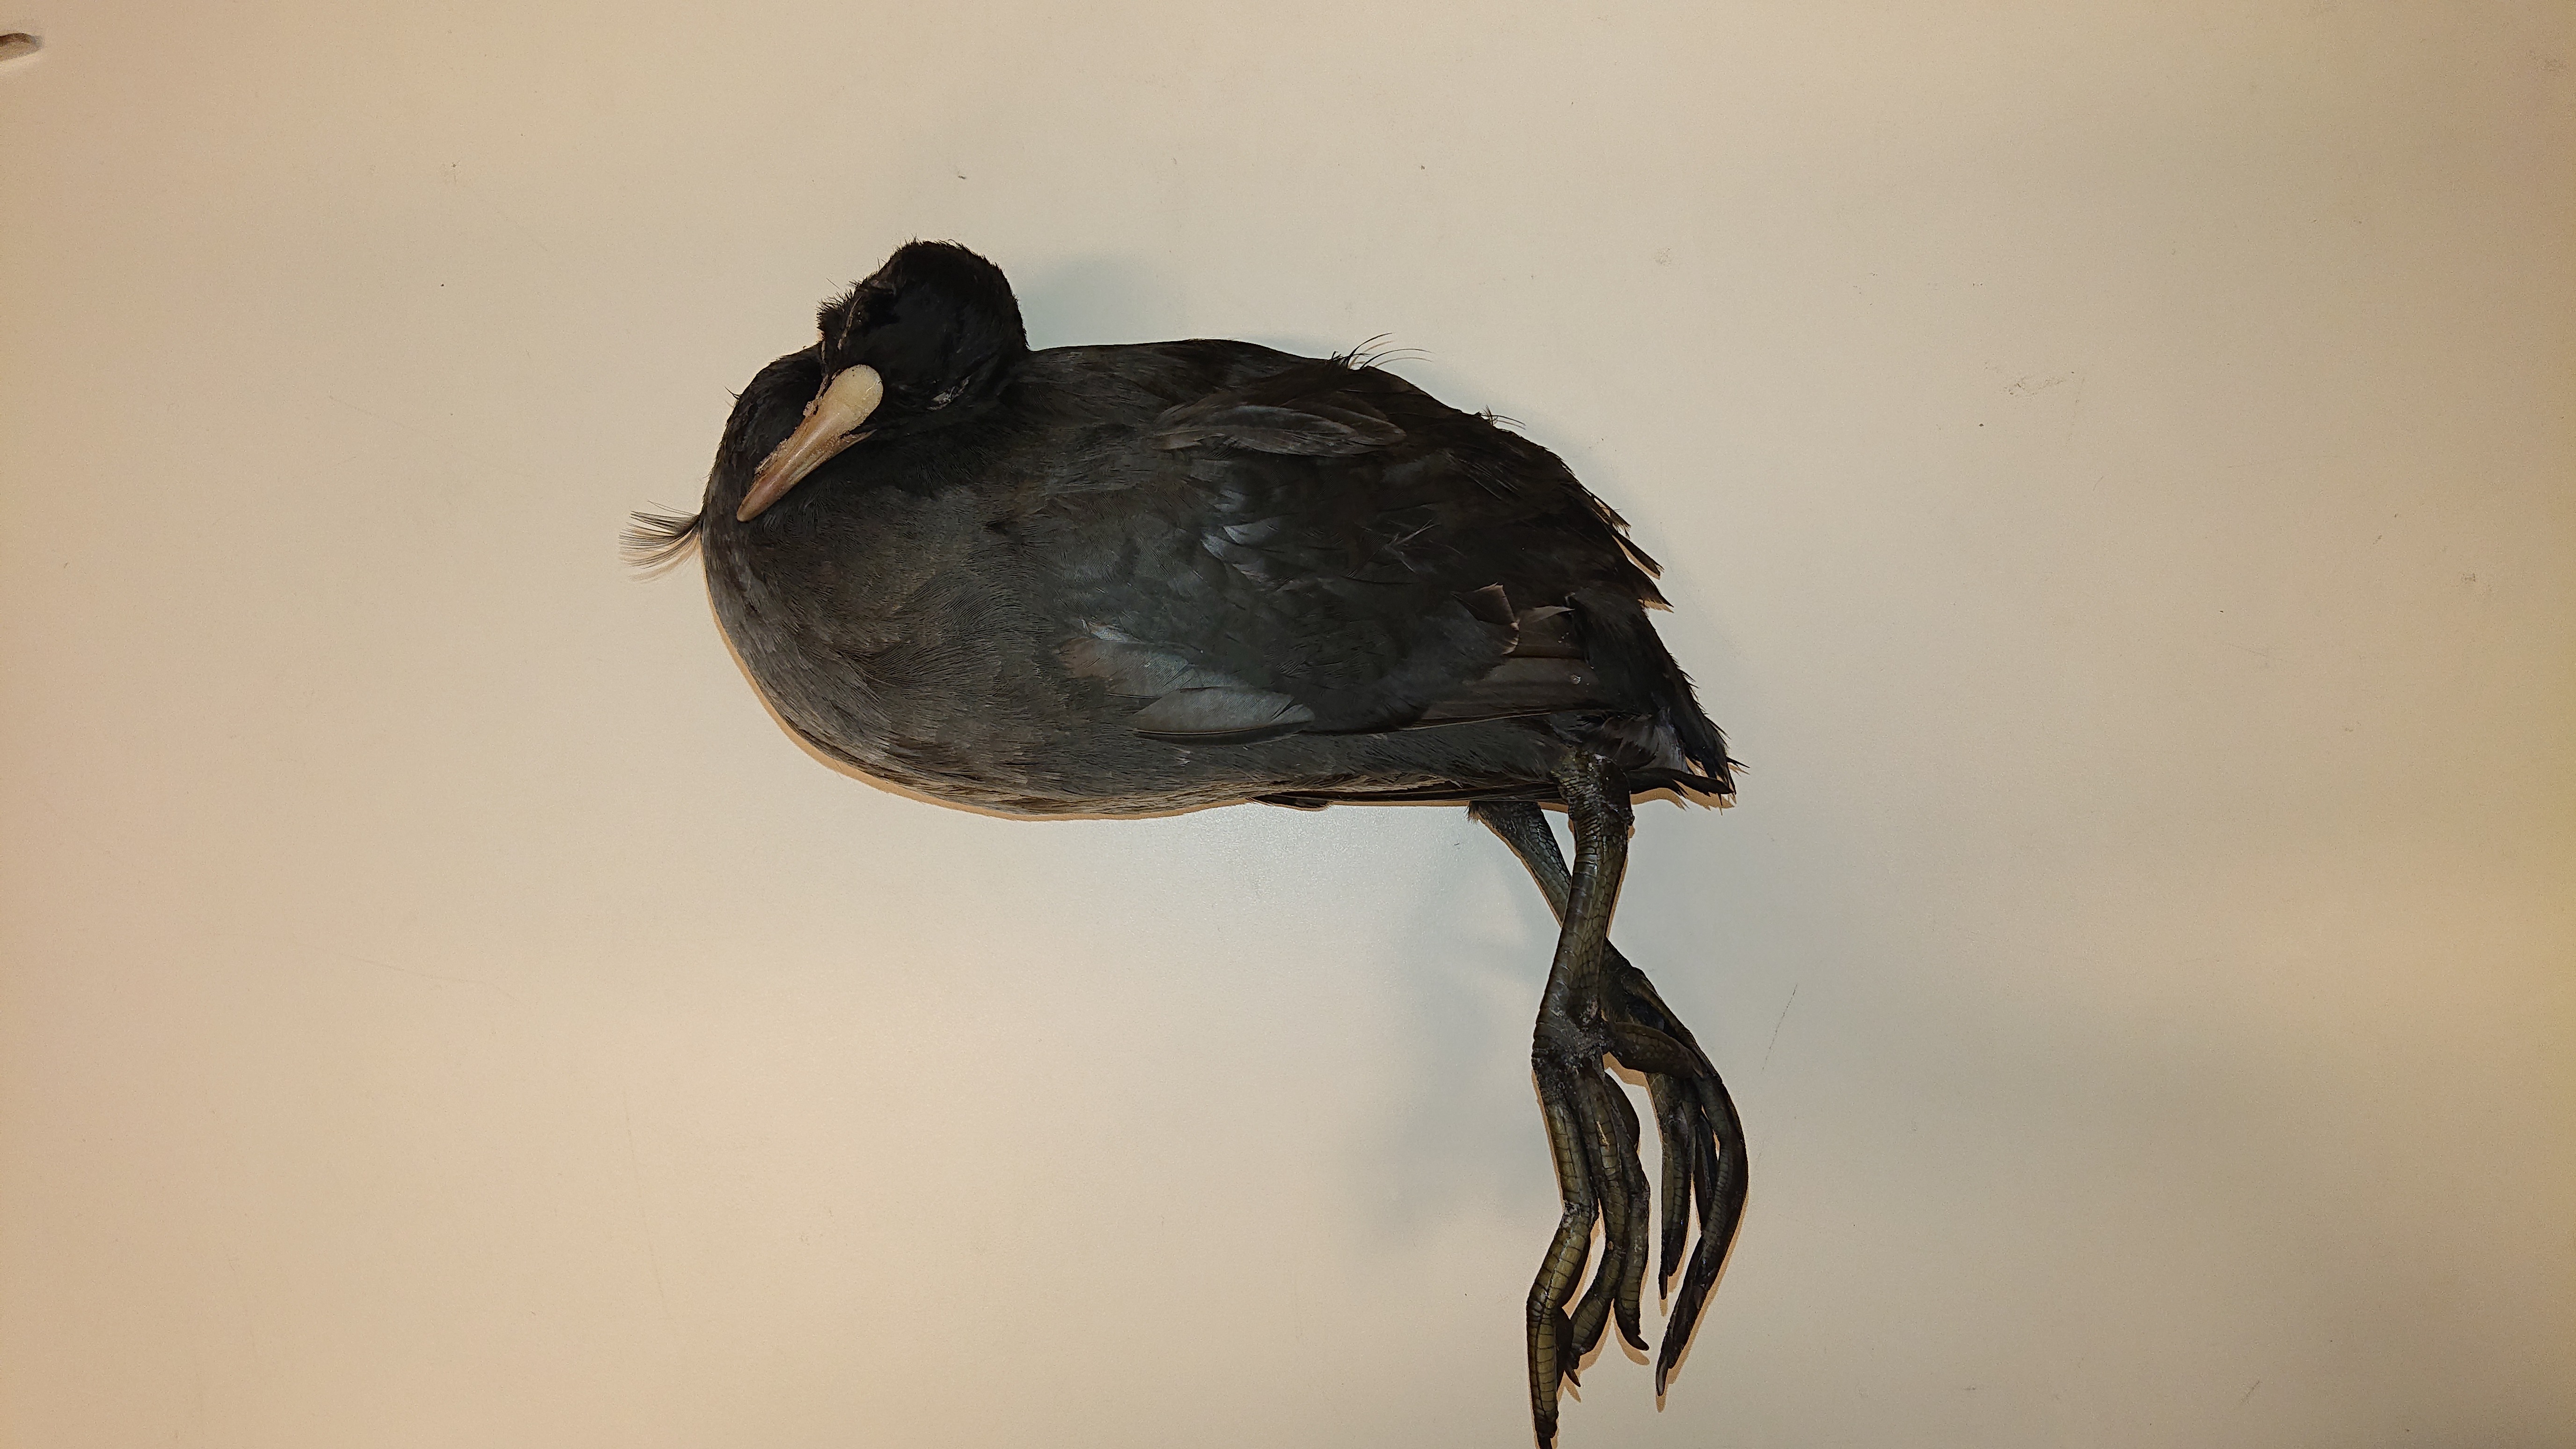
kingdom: Animalia
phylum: Chordata
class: Aves
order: Gruiformes
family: Rallidae
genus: Fulica
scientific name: Fulica atra
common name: Eurasian coot
